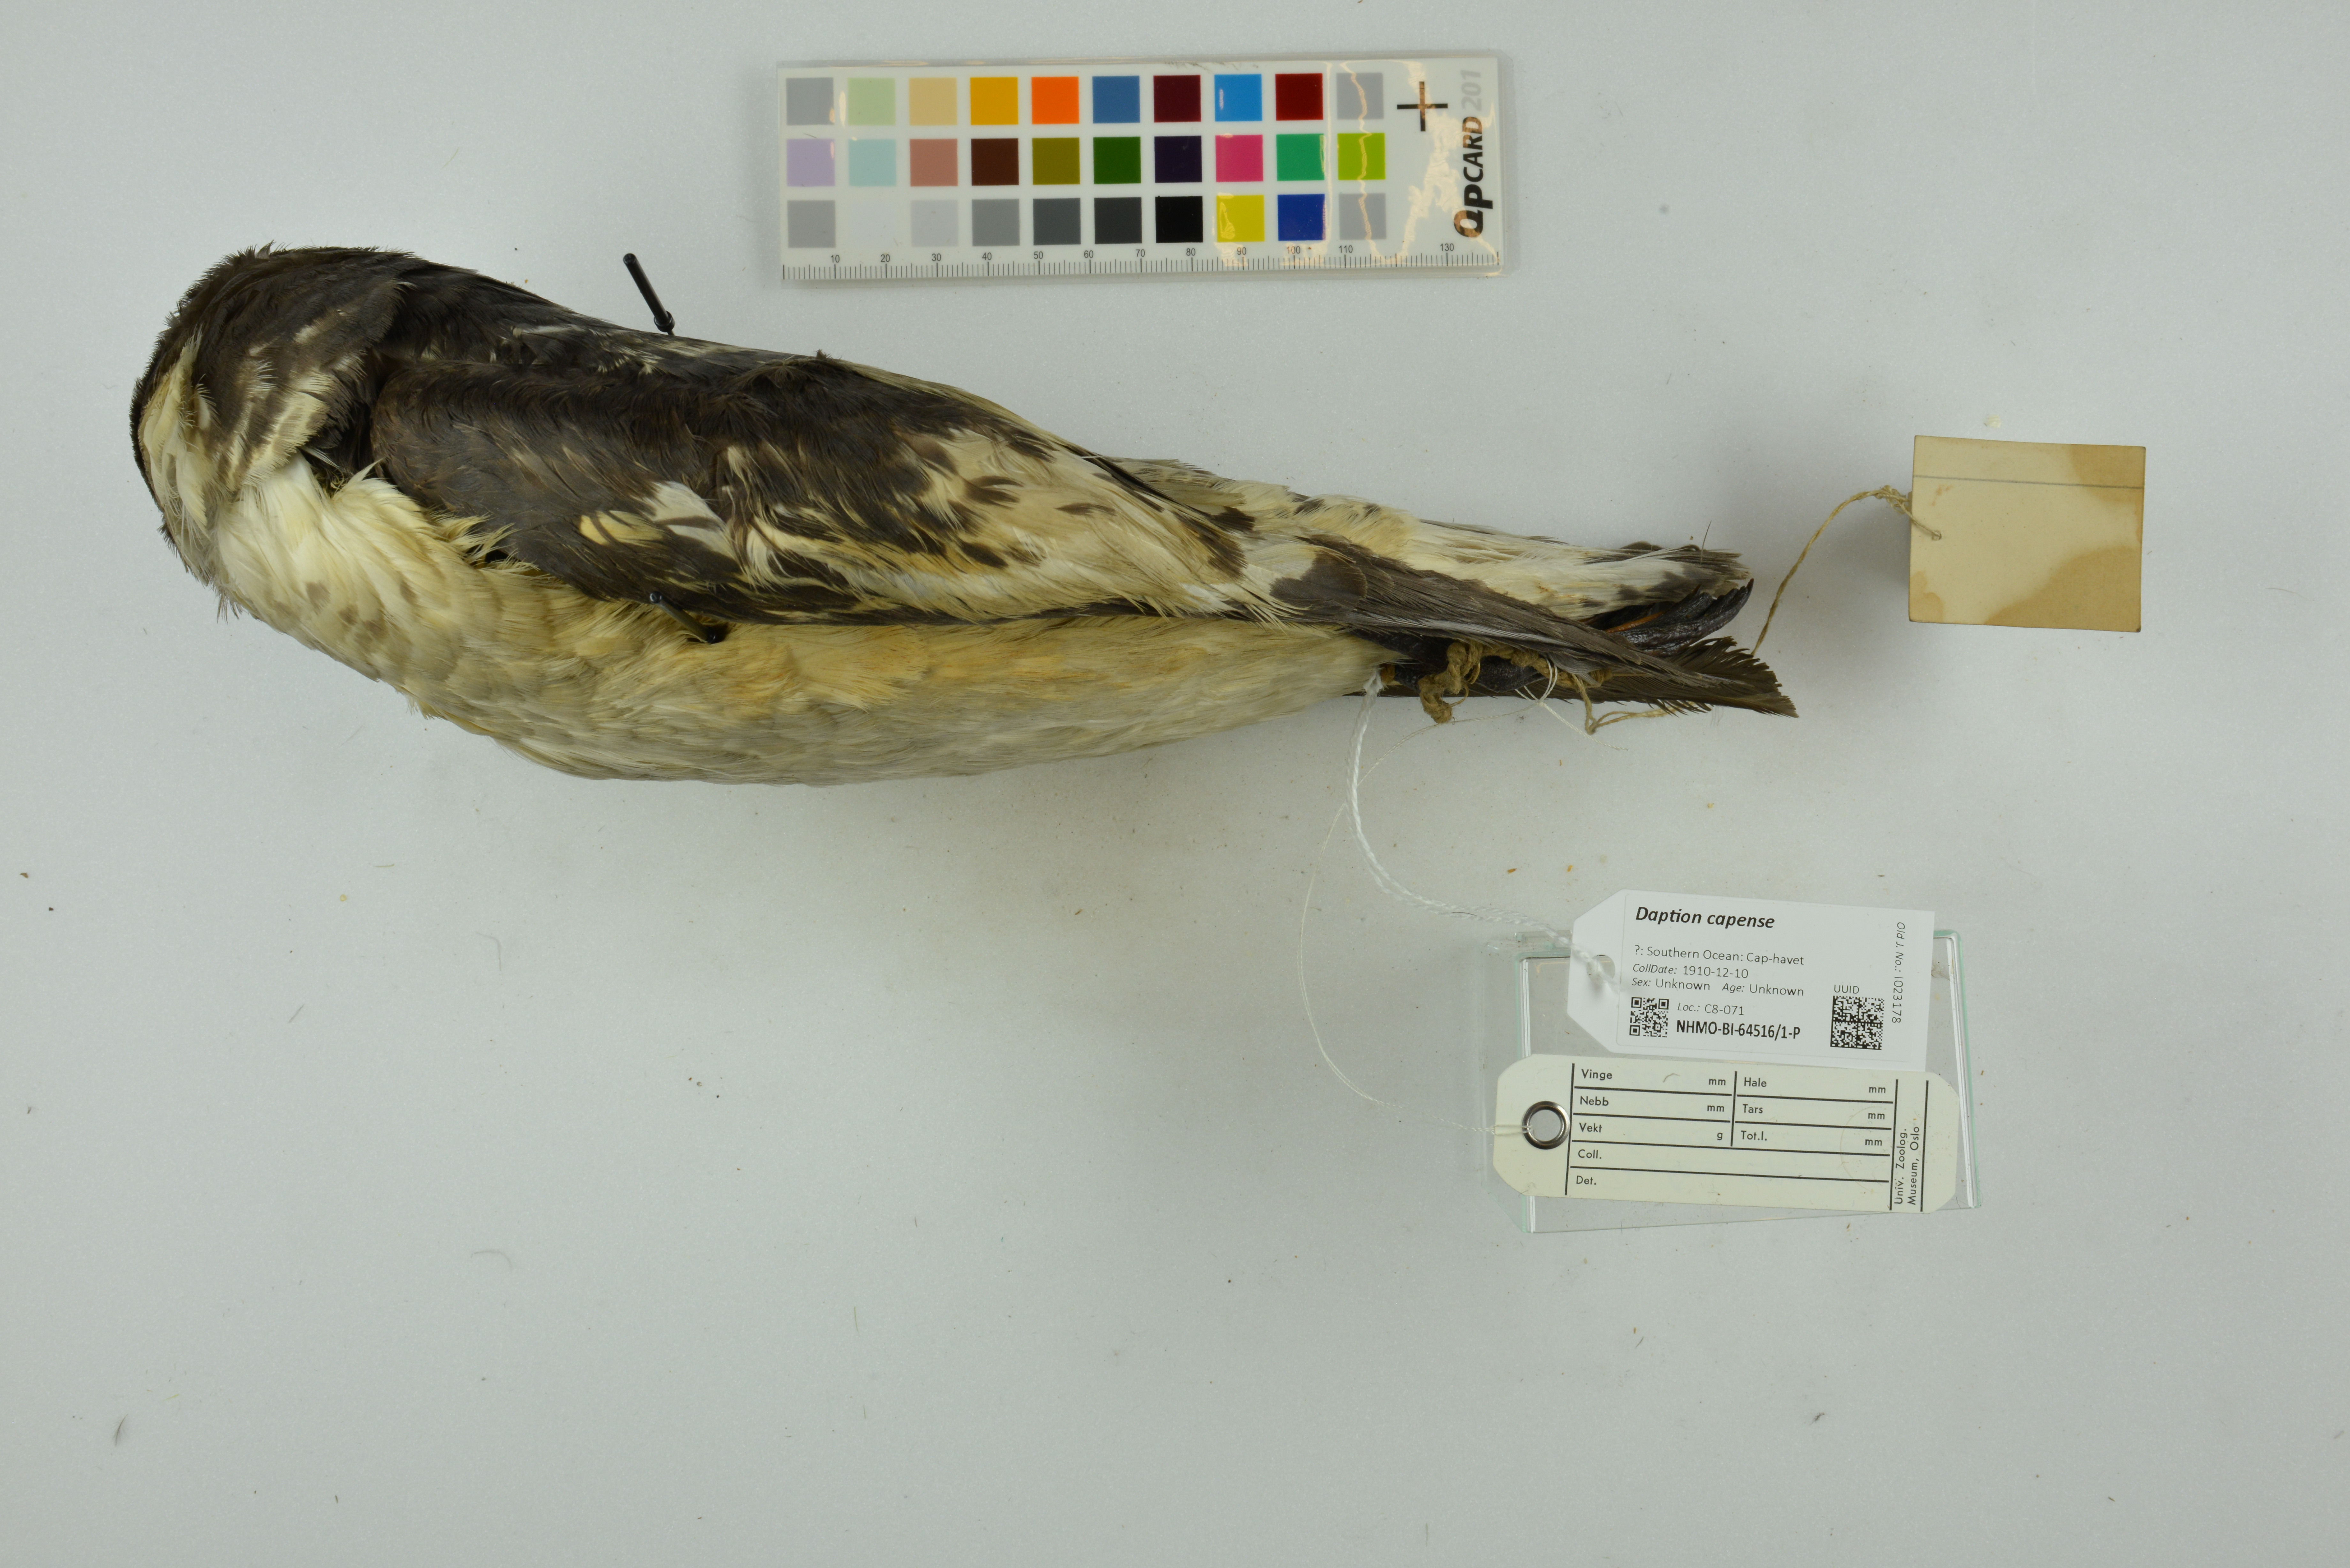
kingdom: Animalia
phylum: Chordata
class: Aves
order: Procellariiformes
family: Procellariidae
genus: Daption
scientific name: Daption capense
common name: Cape petrel
